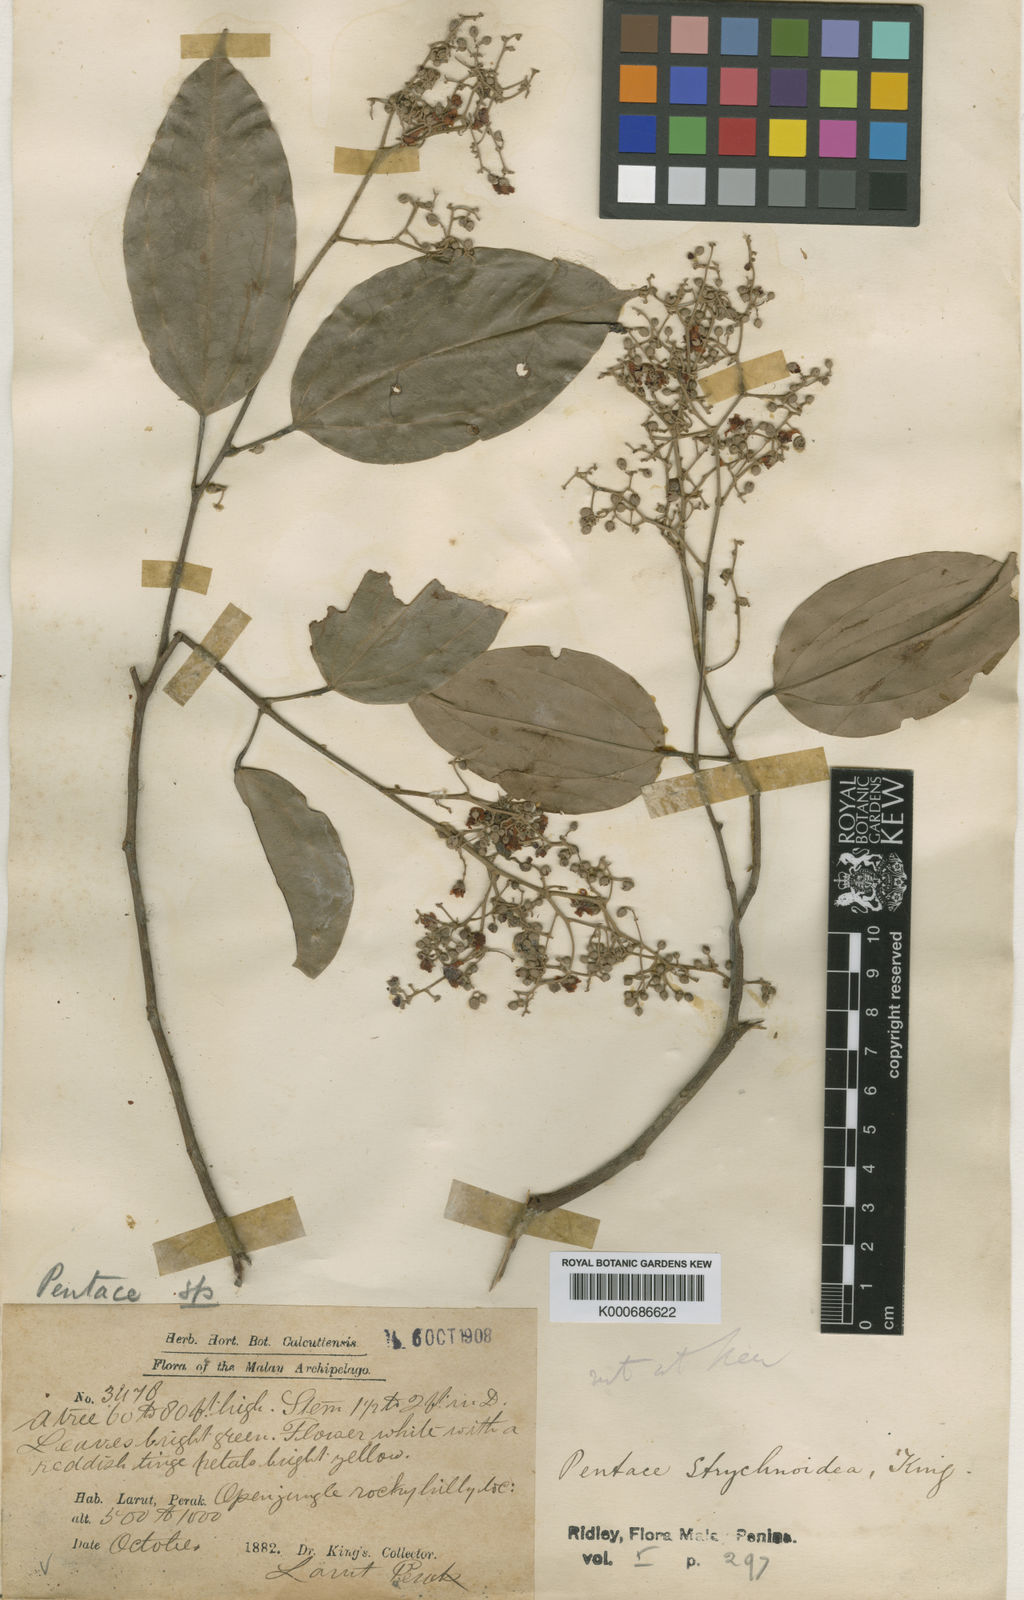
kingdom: Plantae
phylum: Tracheophyta
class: Magnoliopsida
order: Malvales
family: Malvaceae
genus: Pentace
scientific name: Pentace strychnoidea
